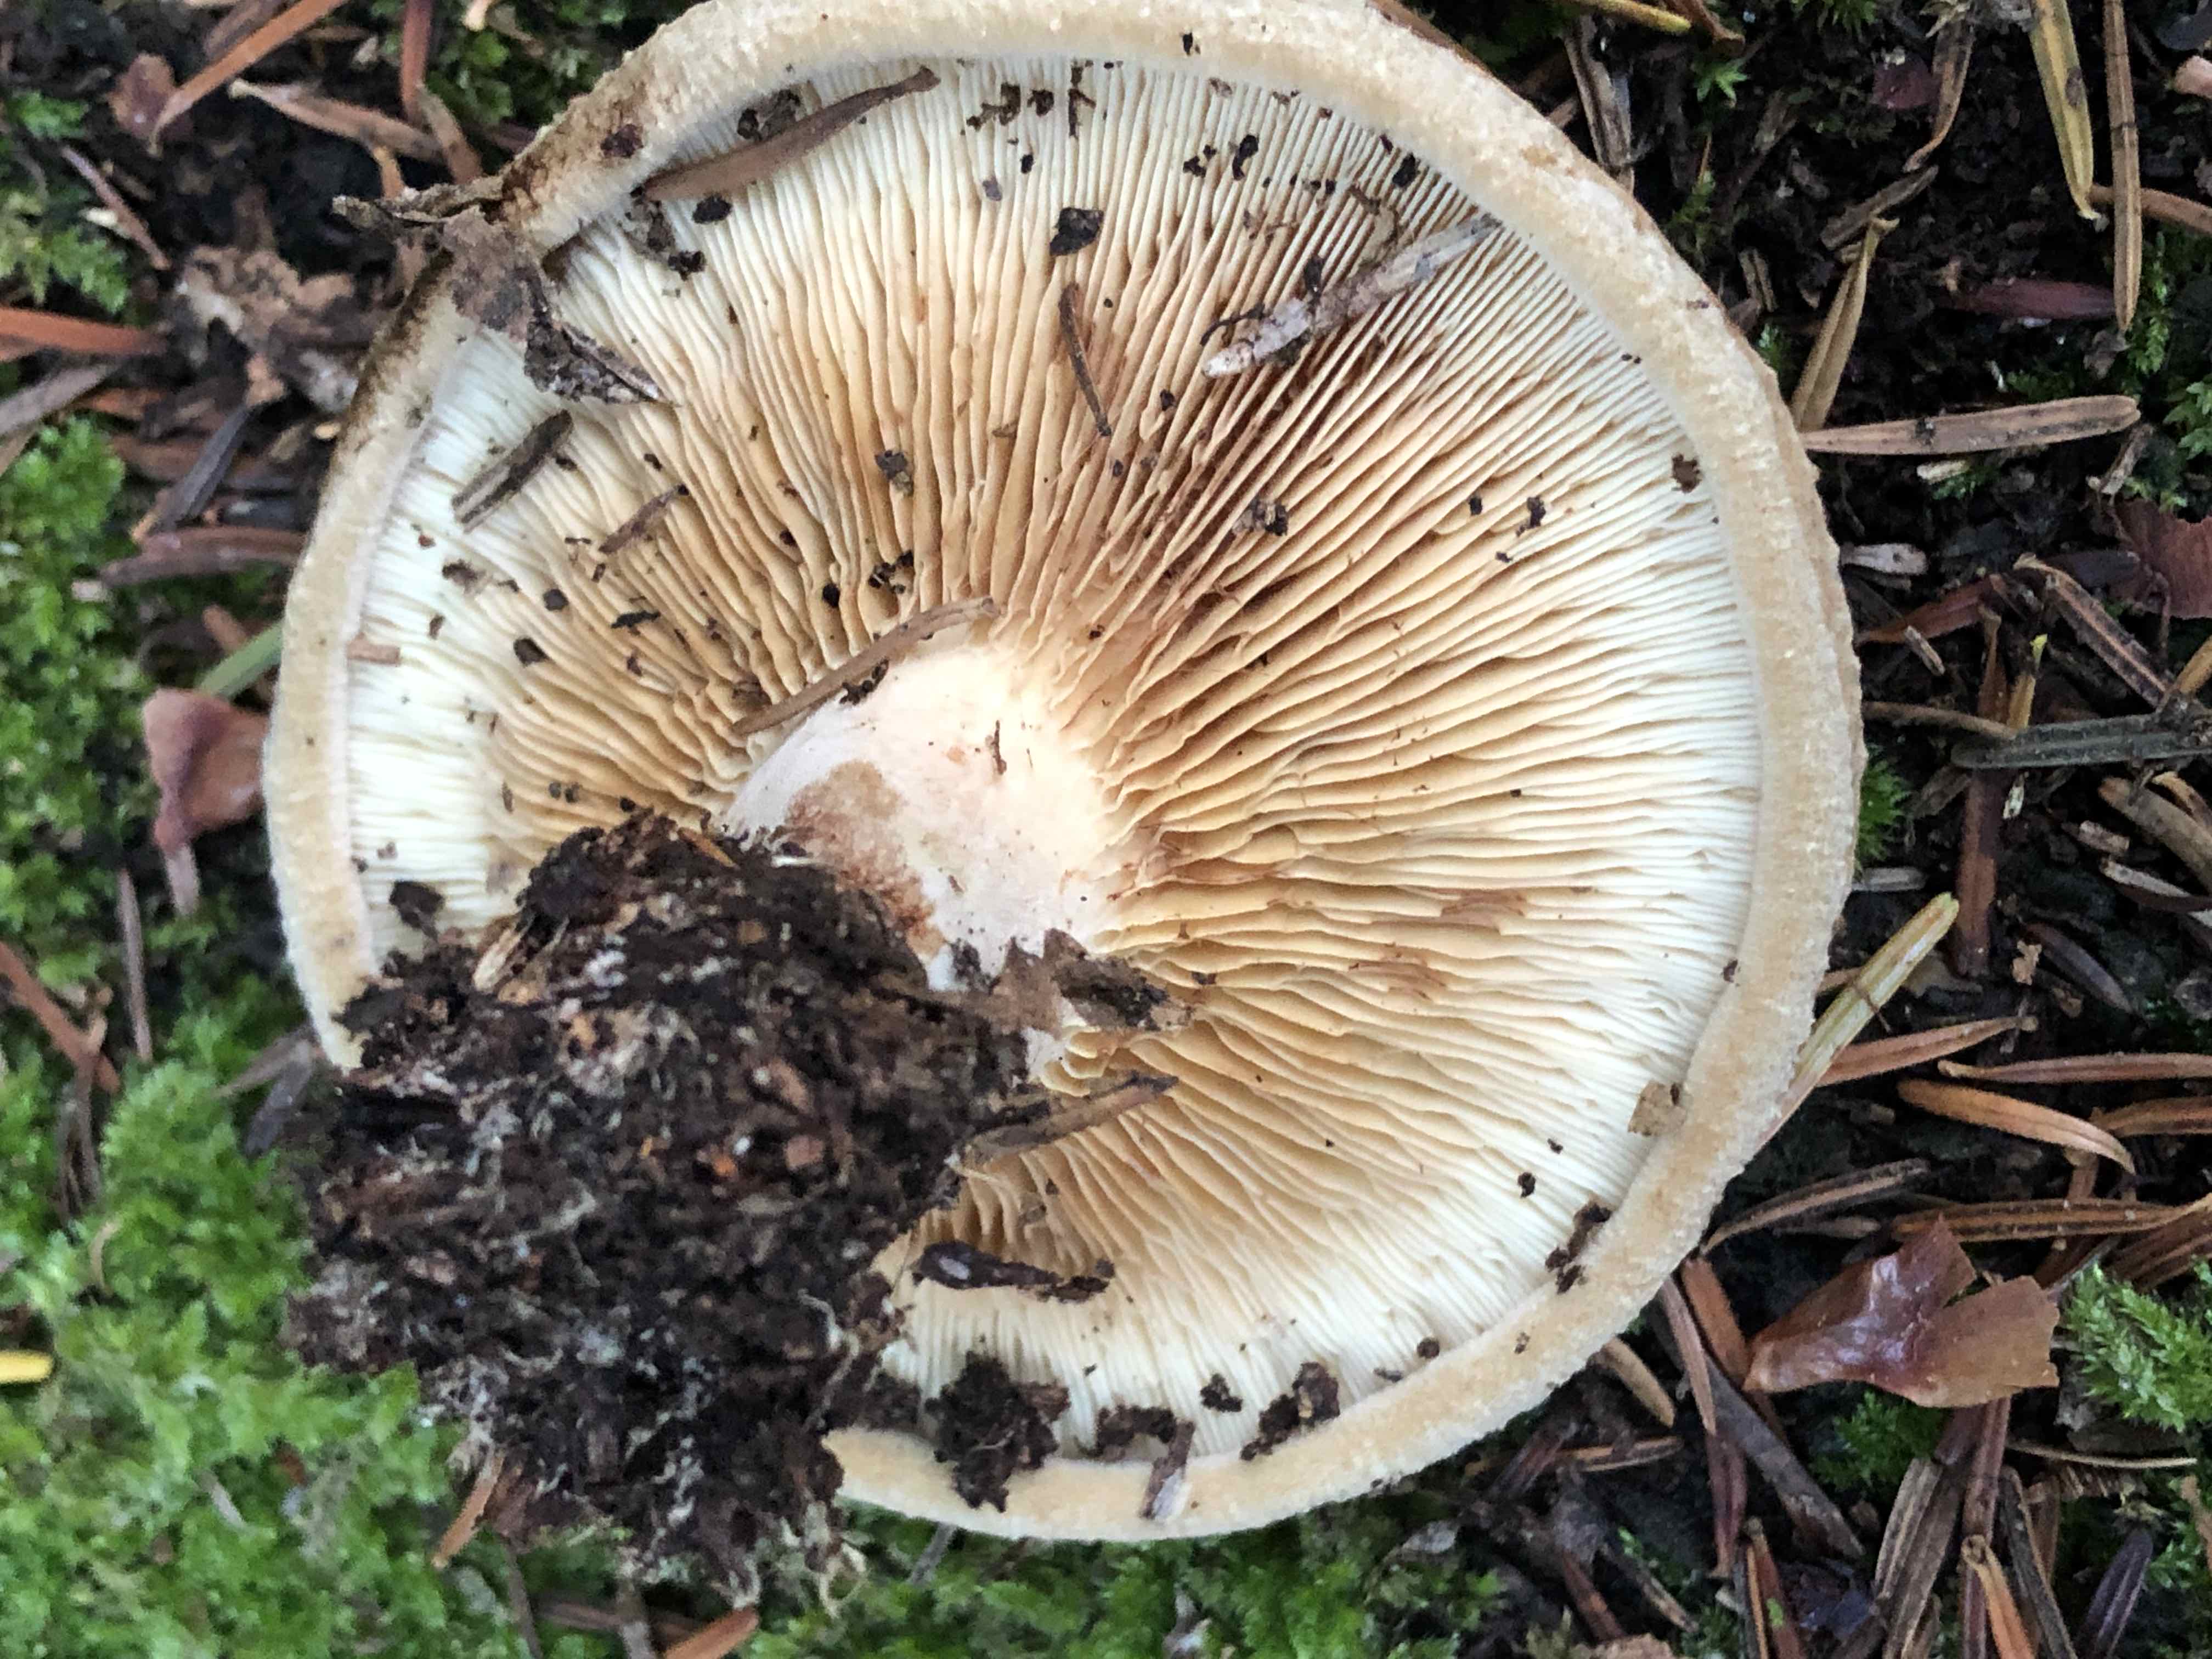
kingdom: Fungi
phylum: Basidiomycota
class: Agaricomycetes
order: Boletales
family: Paxillaceae
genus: Paxillus
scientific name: Paxillus involutus
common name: almindelig netbladhat
